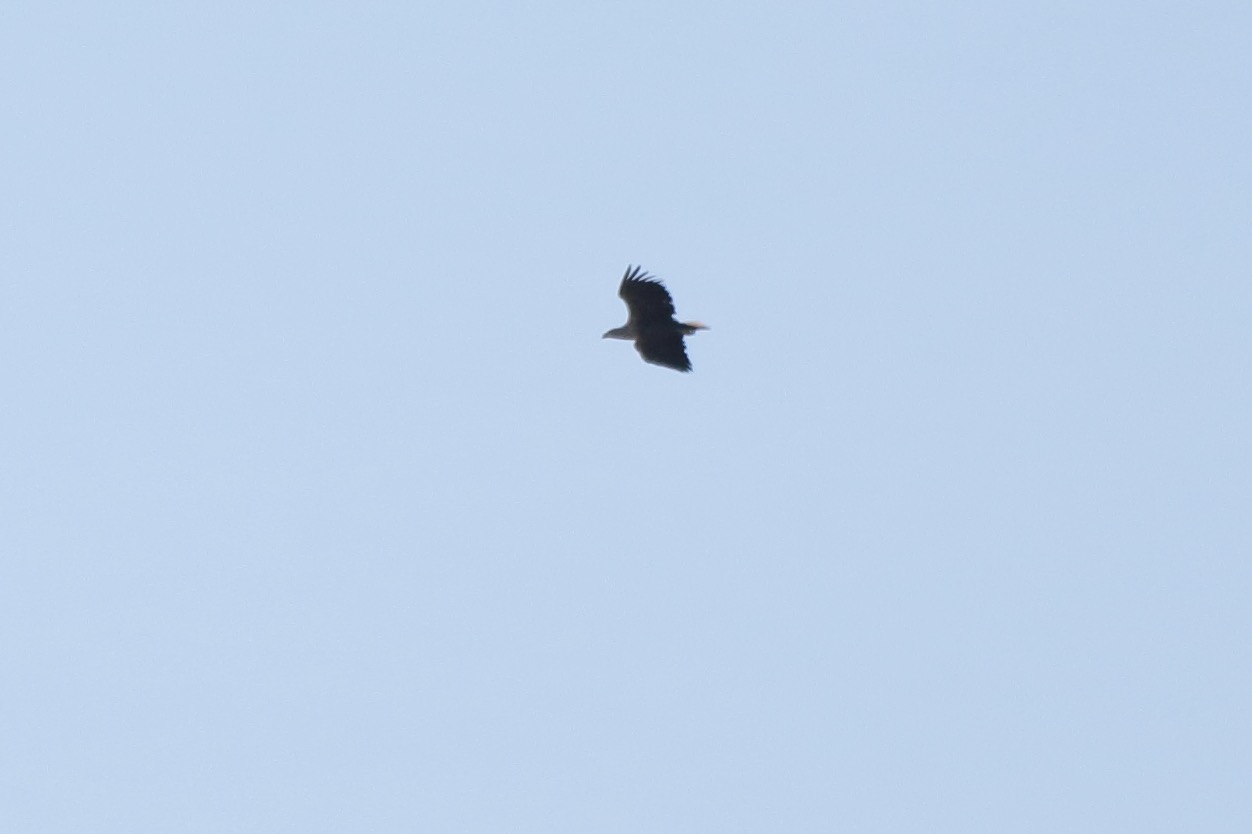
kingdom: Animalia
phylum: Chordata
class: Aves
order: Accipitriformes
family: Accipitridae
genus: Haliaeetus
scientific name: Haliaeetus albicilla
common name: Havørn
